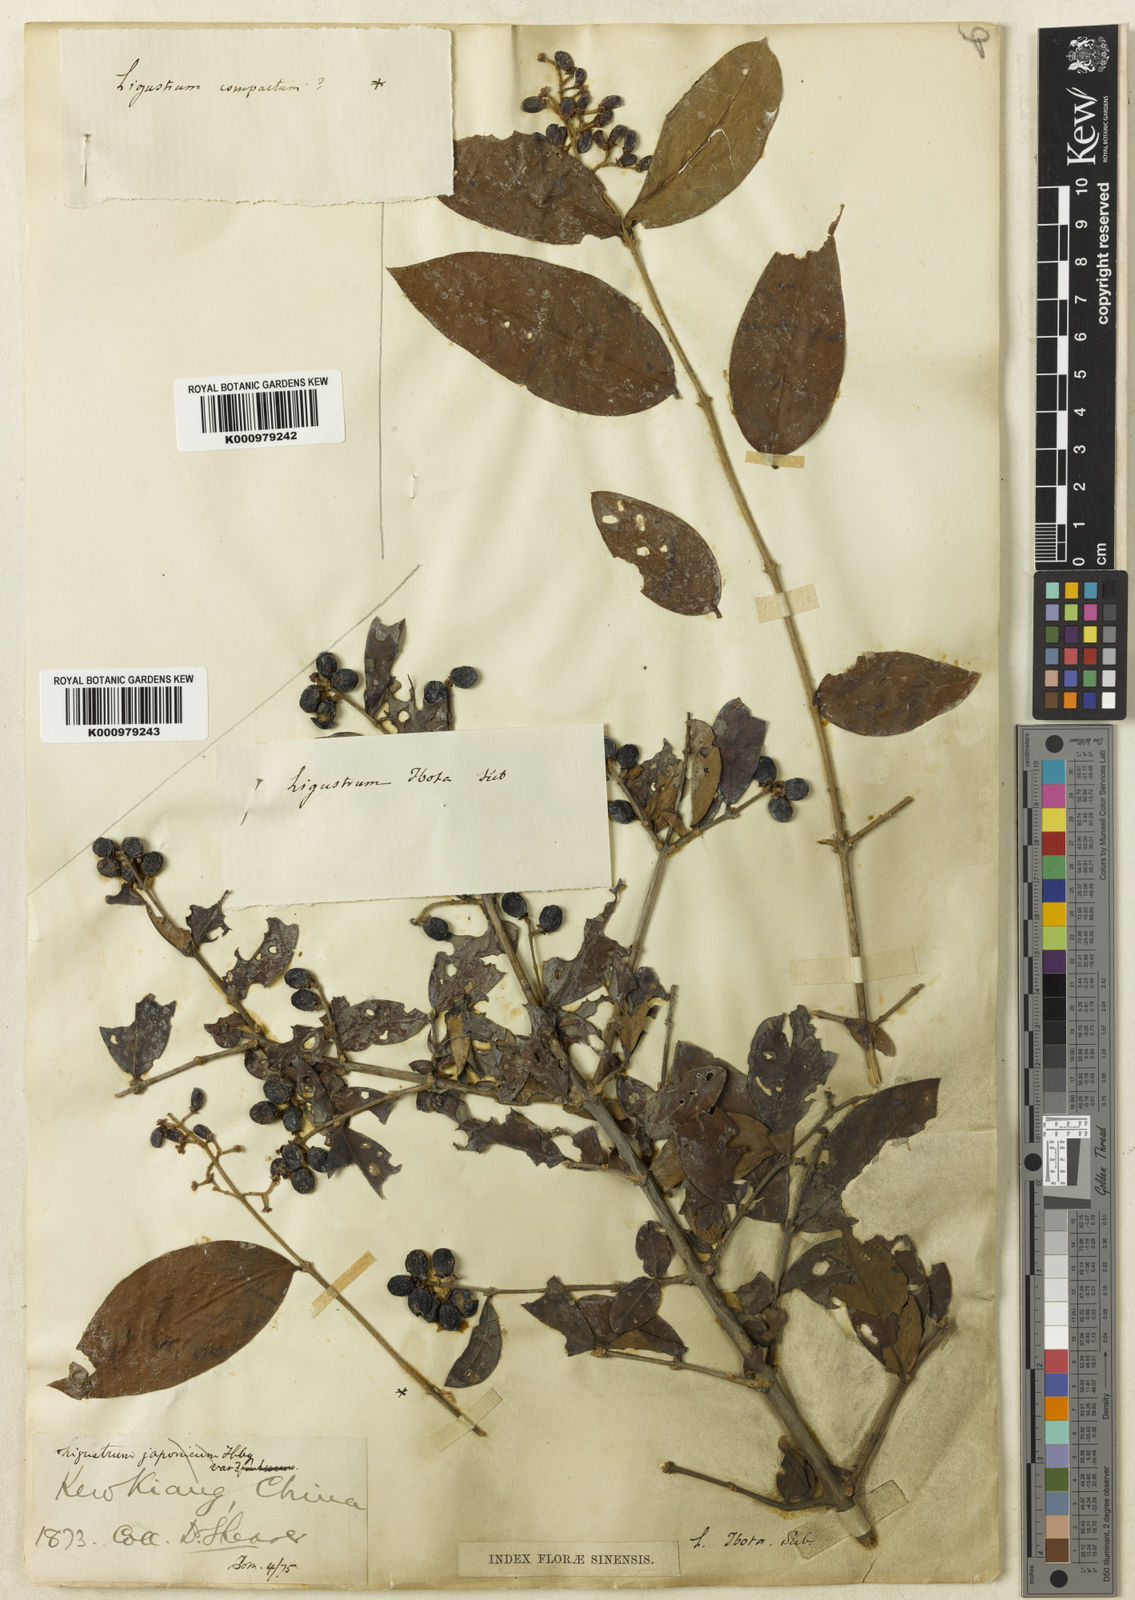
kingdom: Plantae
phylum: Tracheophyta
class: Magnoliopsida
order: Lamiales
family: Oleaceae
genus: Ligustrum
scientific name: Ligustrum leucanthum
